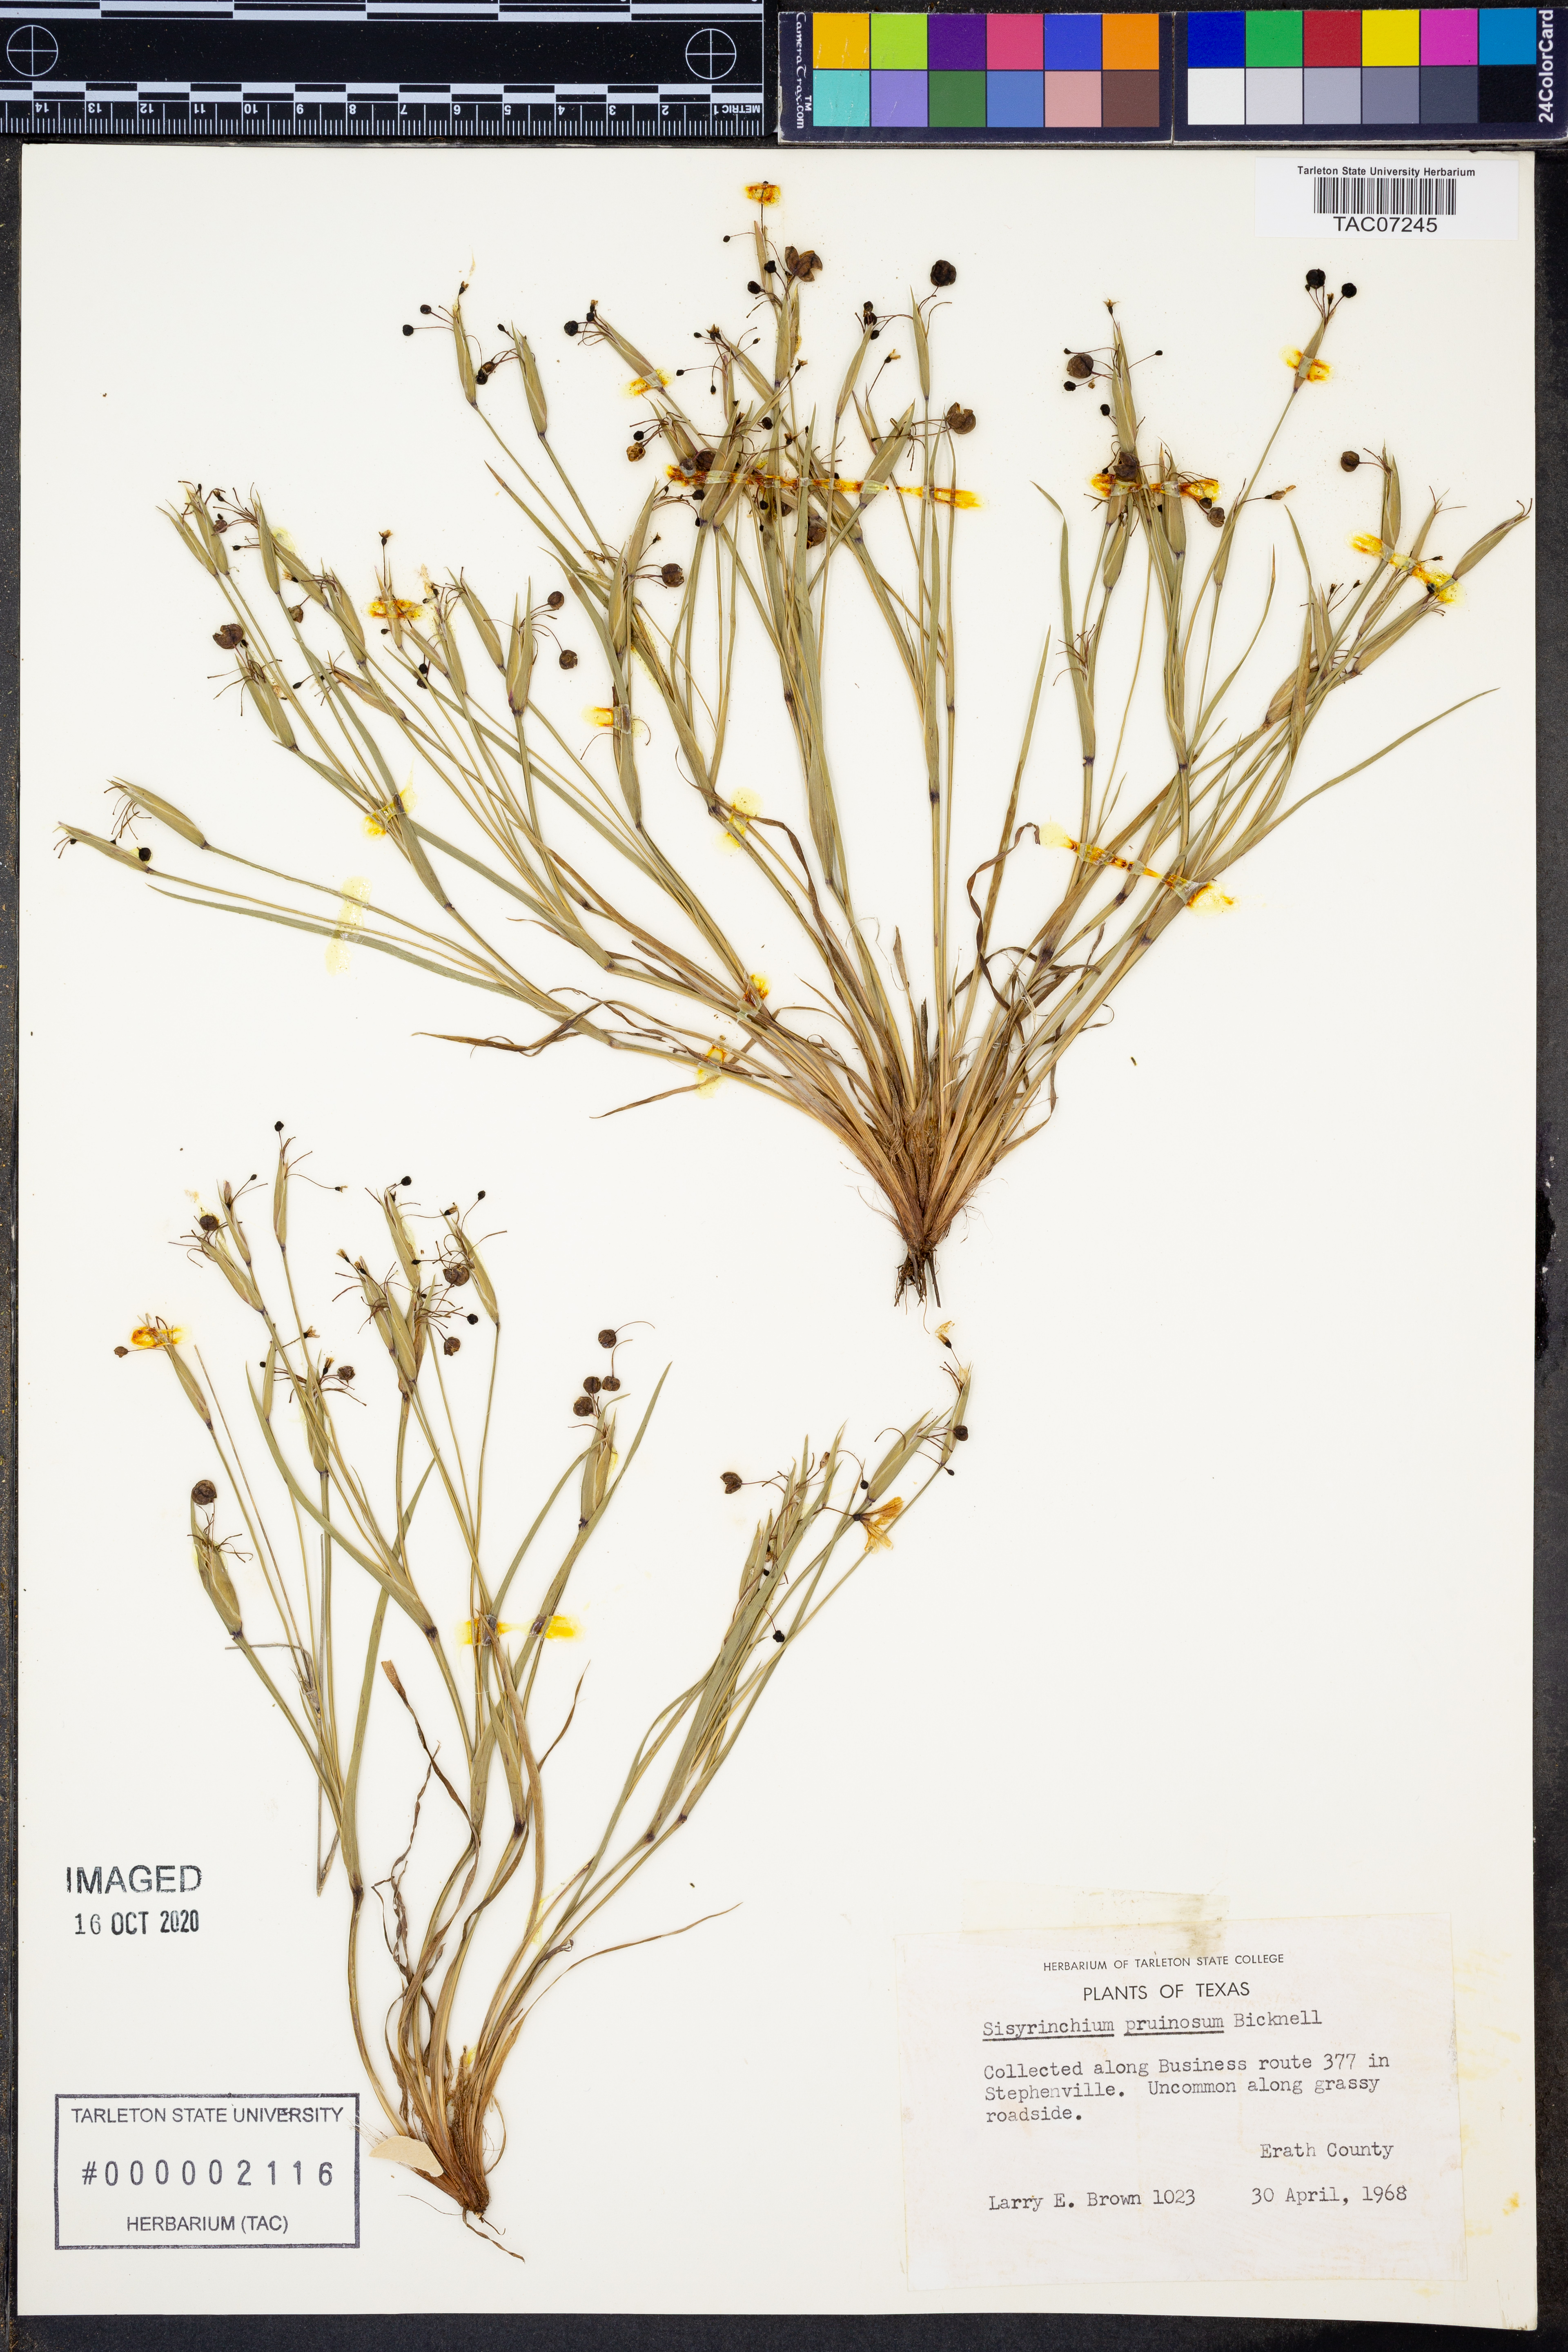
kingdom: Plantae
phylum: Tracheophyta
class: Liliopsida
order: Asparagales
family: Iridaceae
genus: Sisyrinchium
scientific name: Sisyrinchium pruinosum
